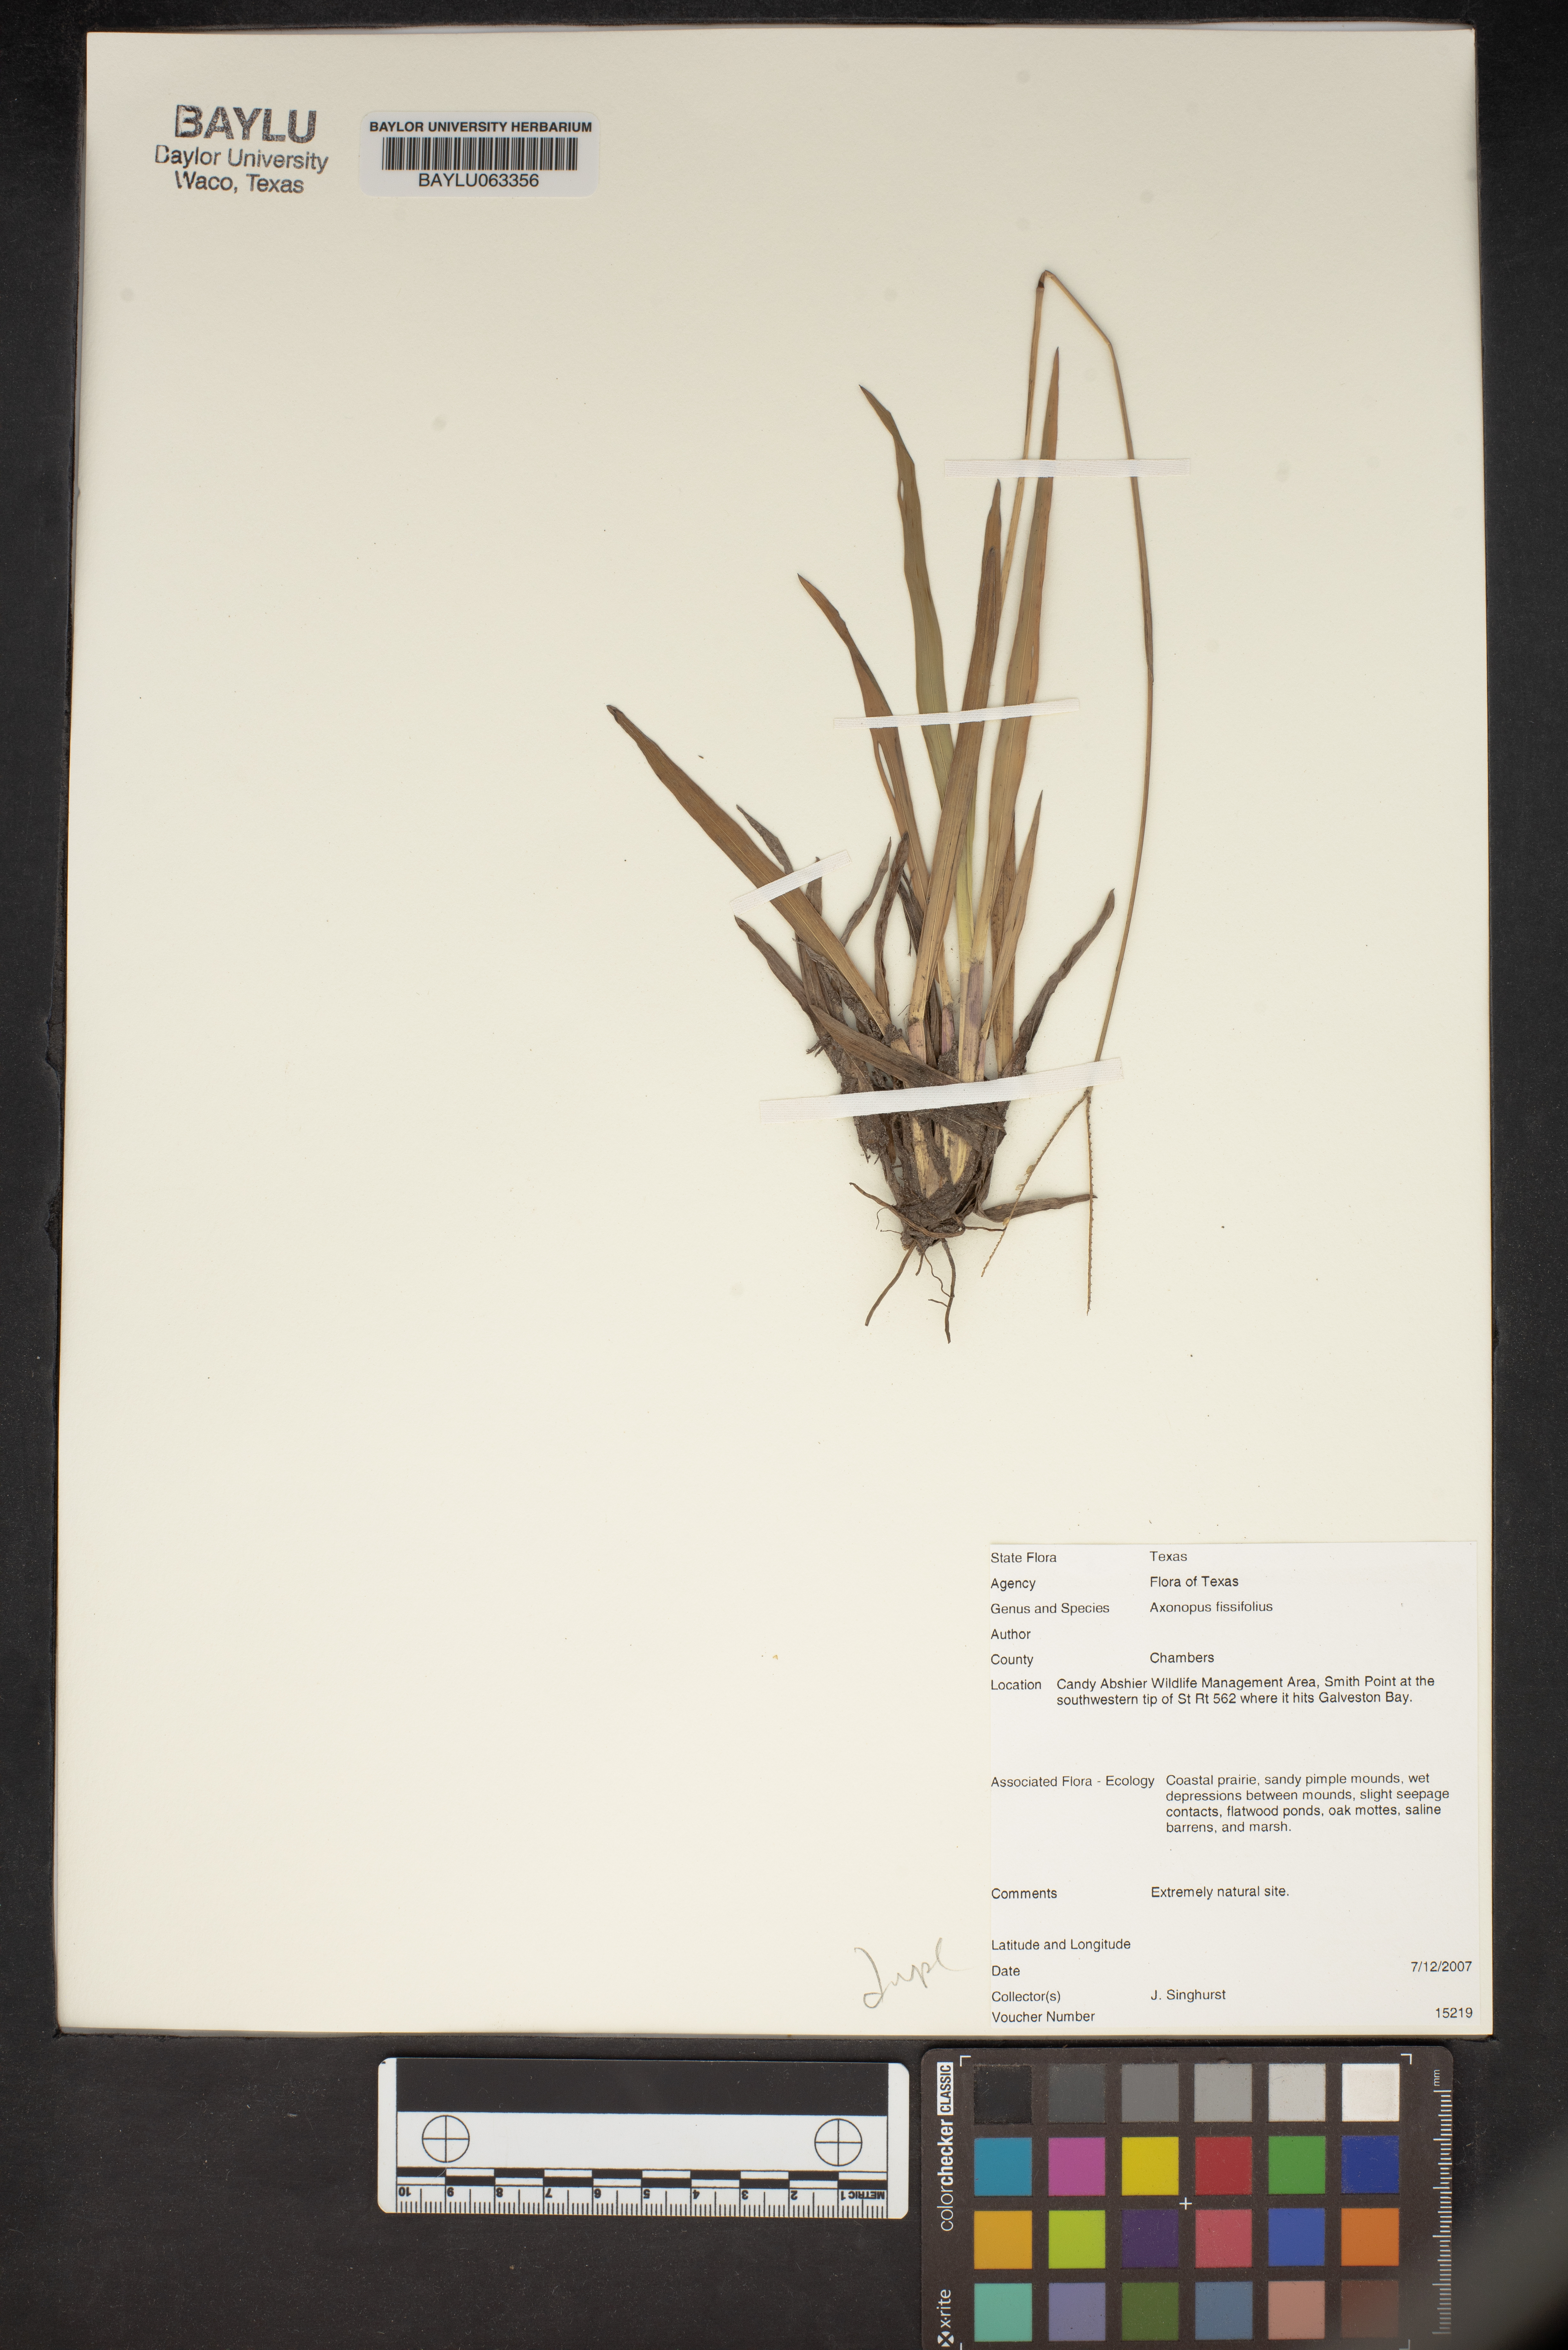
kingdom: Plantae
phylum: Tracheophyta
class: Liliopsida
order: Poales
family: Poaceae
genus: Axonopus
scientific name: Axonopus fissifolius
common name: Common carpetgrass
